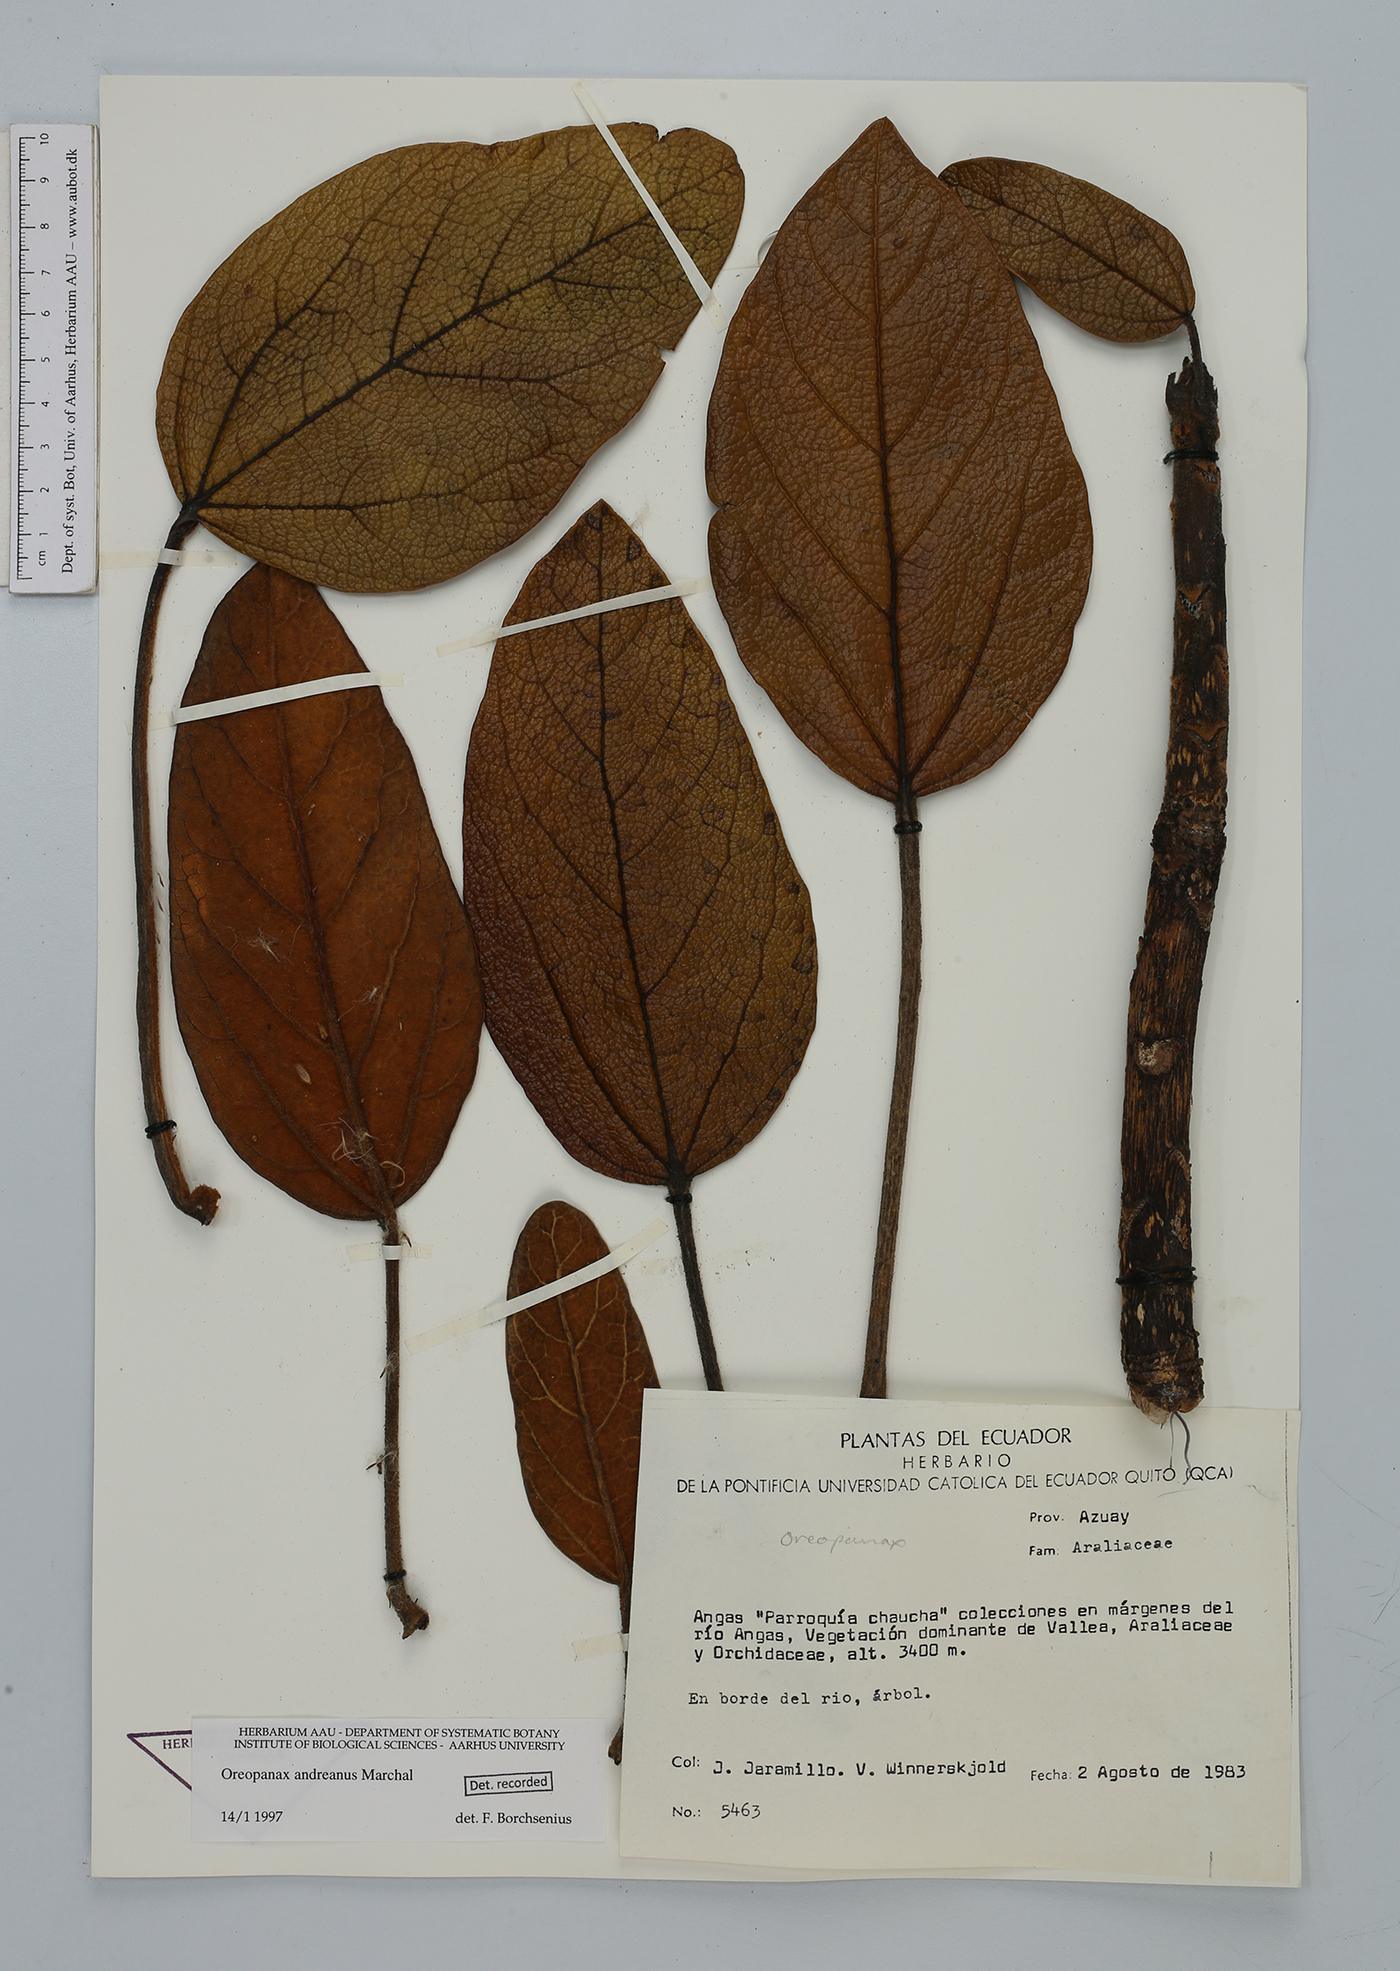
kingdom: Plantae
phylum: Tracheophyta
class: Magnoliopsida
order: Apiales
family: Araliaceae
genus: Oreopanax
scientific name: Oreopanax andreanus
